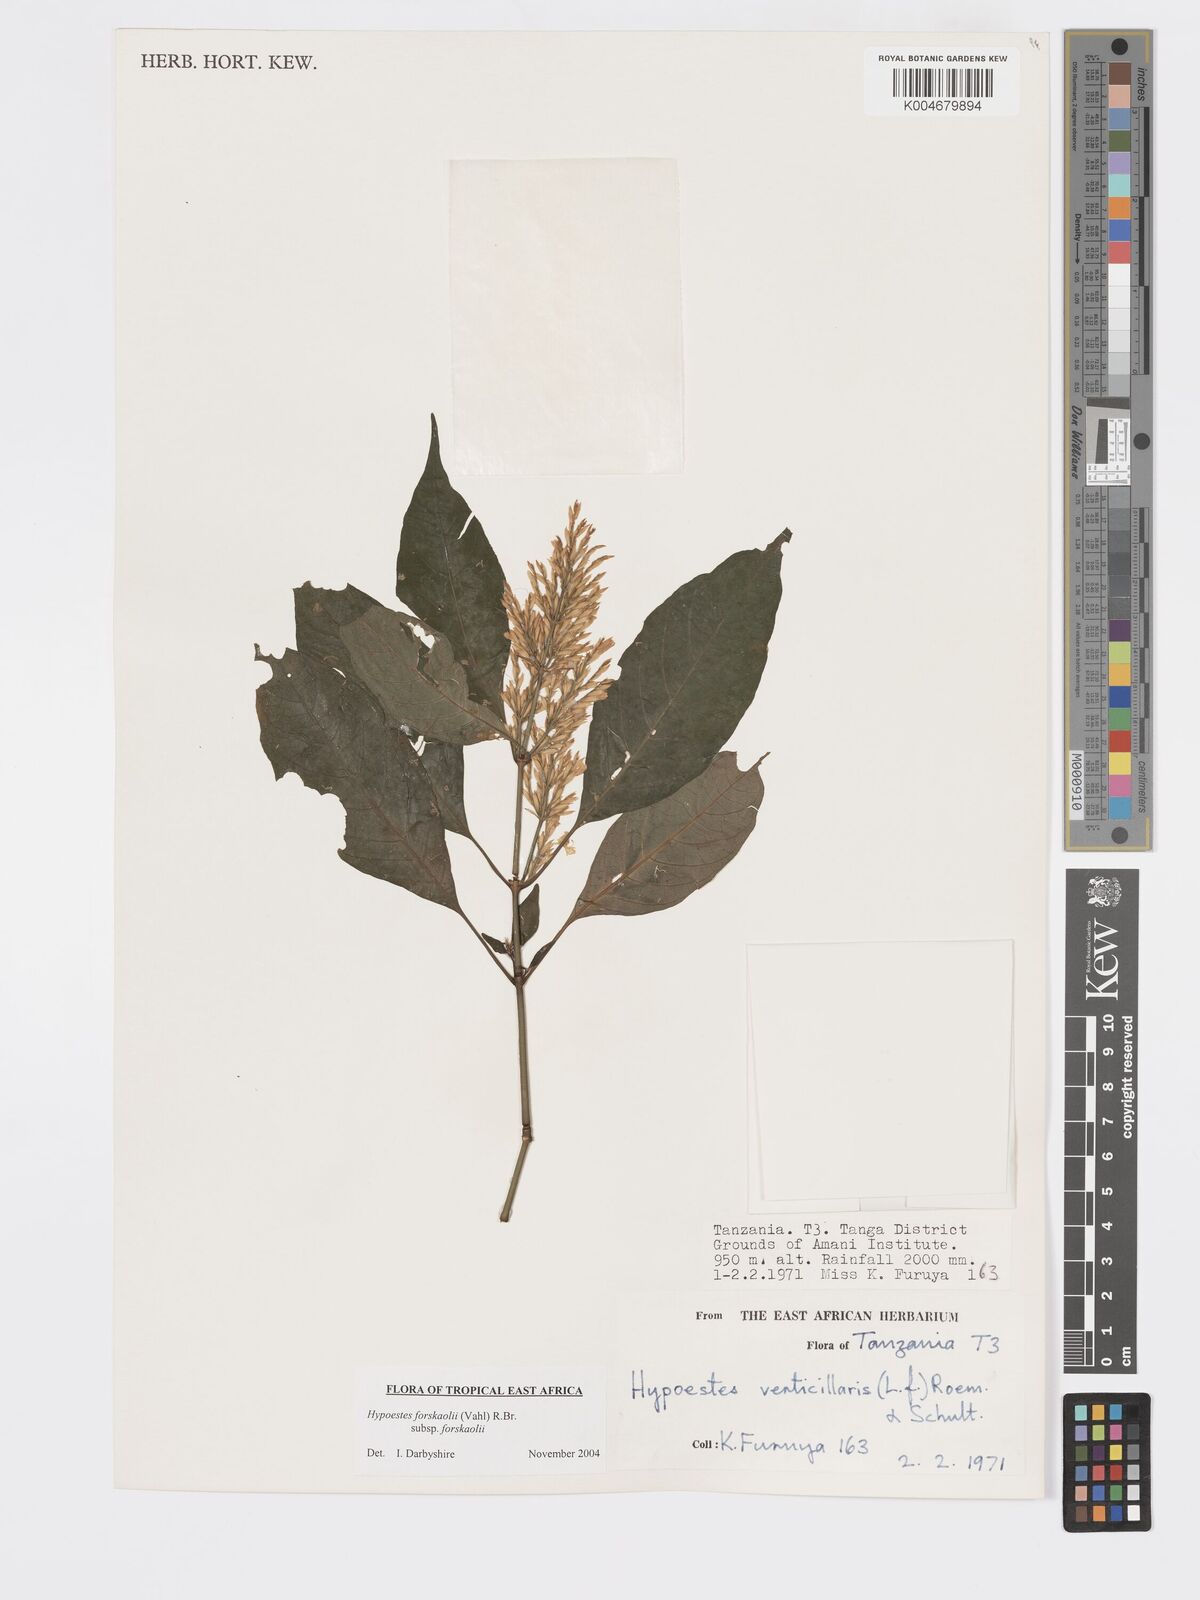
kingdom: Plantae
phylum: Tracheophyta
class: Magnoliopsida
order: Lamiales
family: Acanthaceae
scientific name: Acanthaceae
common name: Acanthaceae
